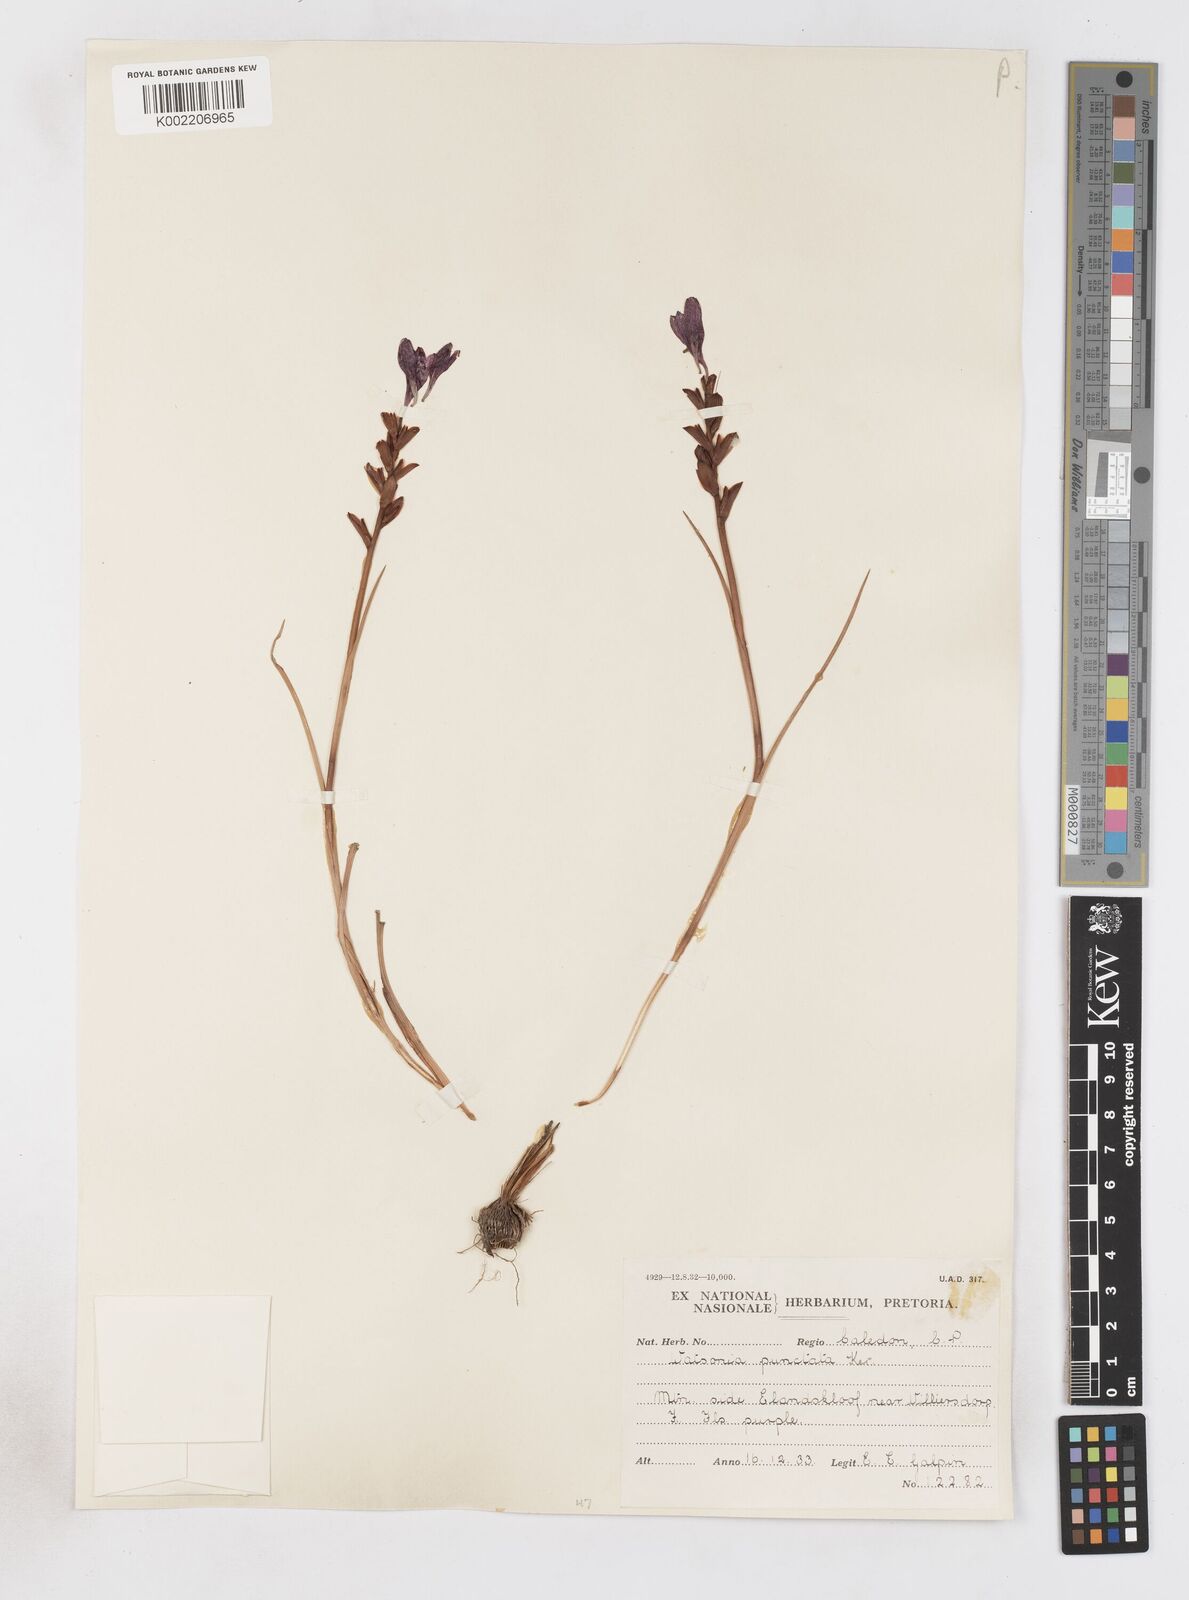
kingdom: Plantae
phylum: Tracheophyta
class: Liliopsida
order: Asparagales
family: Iridaceae
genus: Thereianthus
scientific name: Thereianthus bracteolatus
